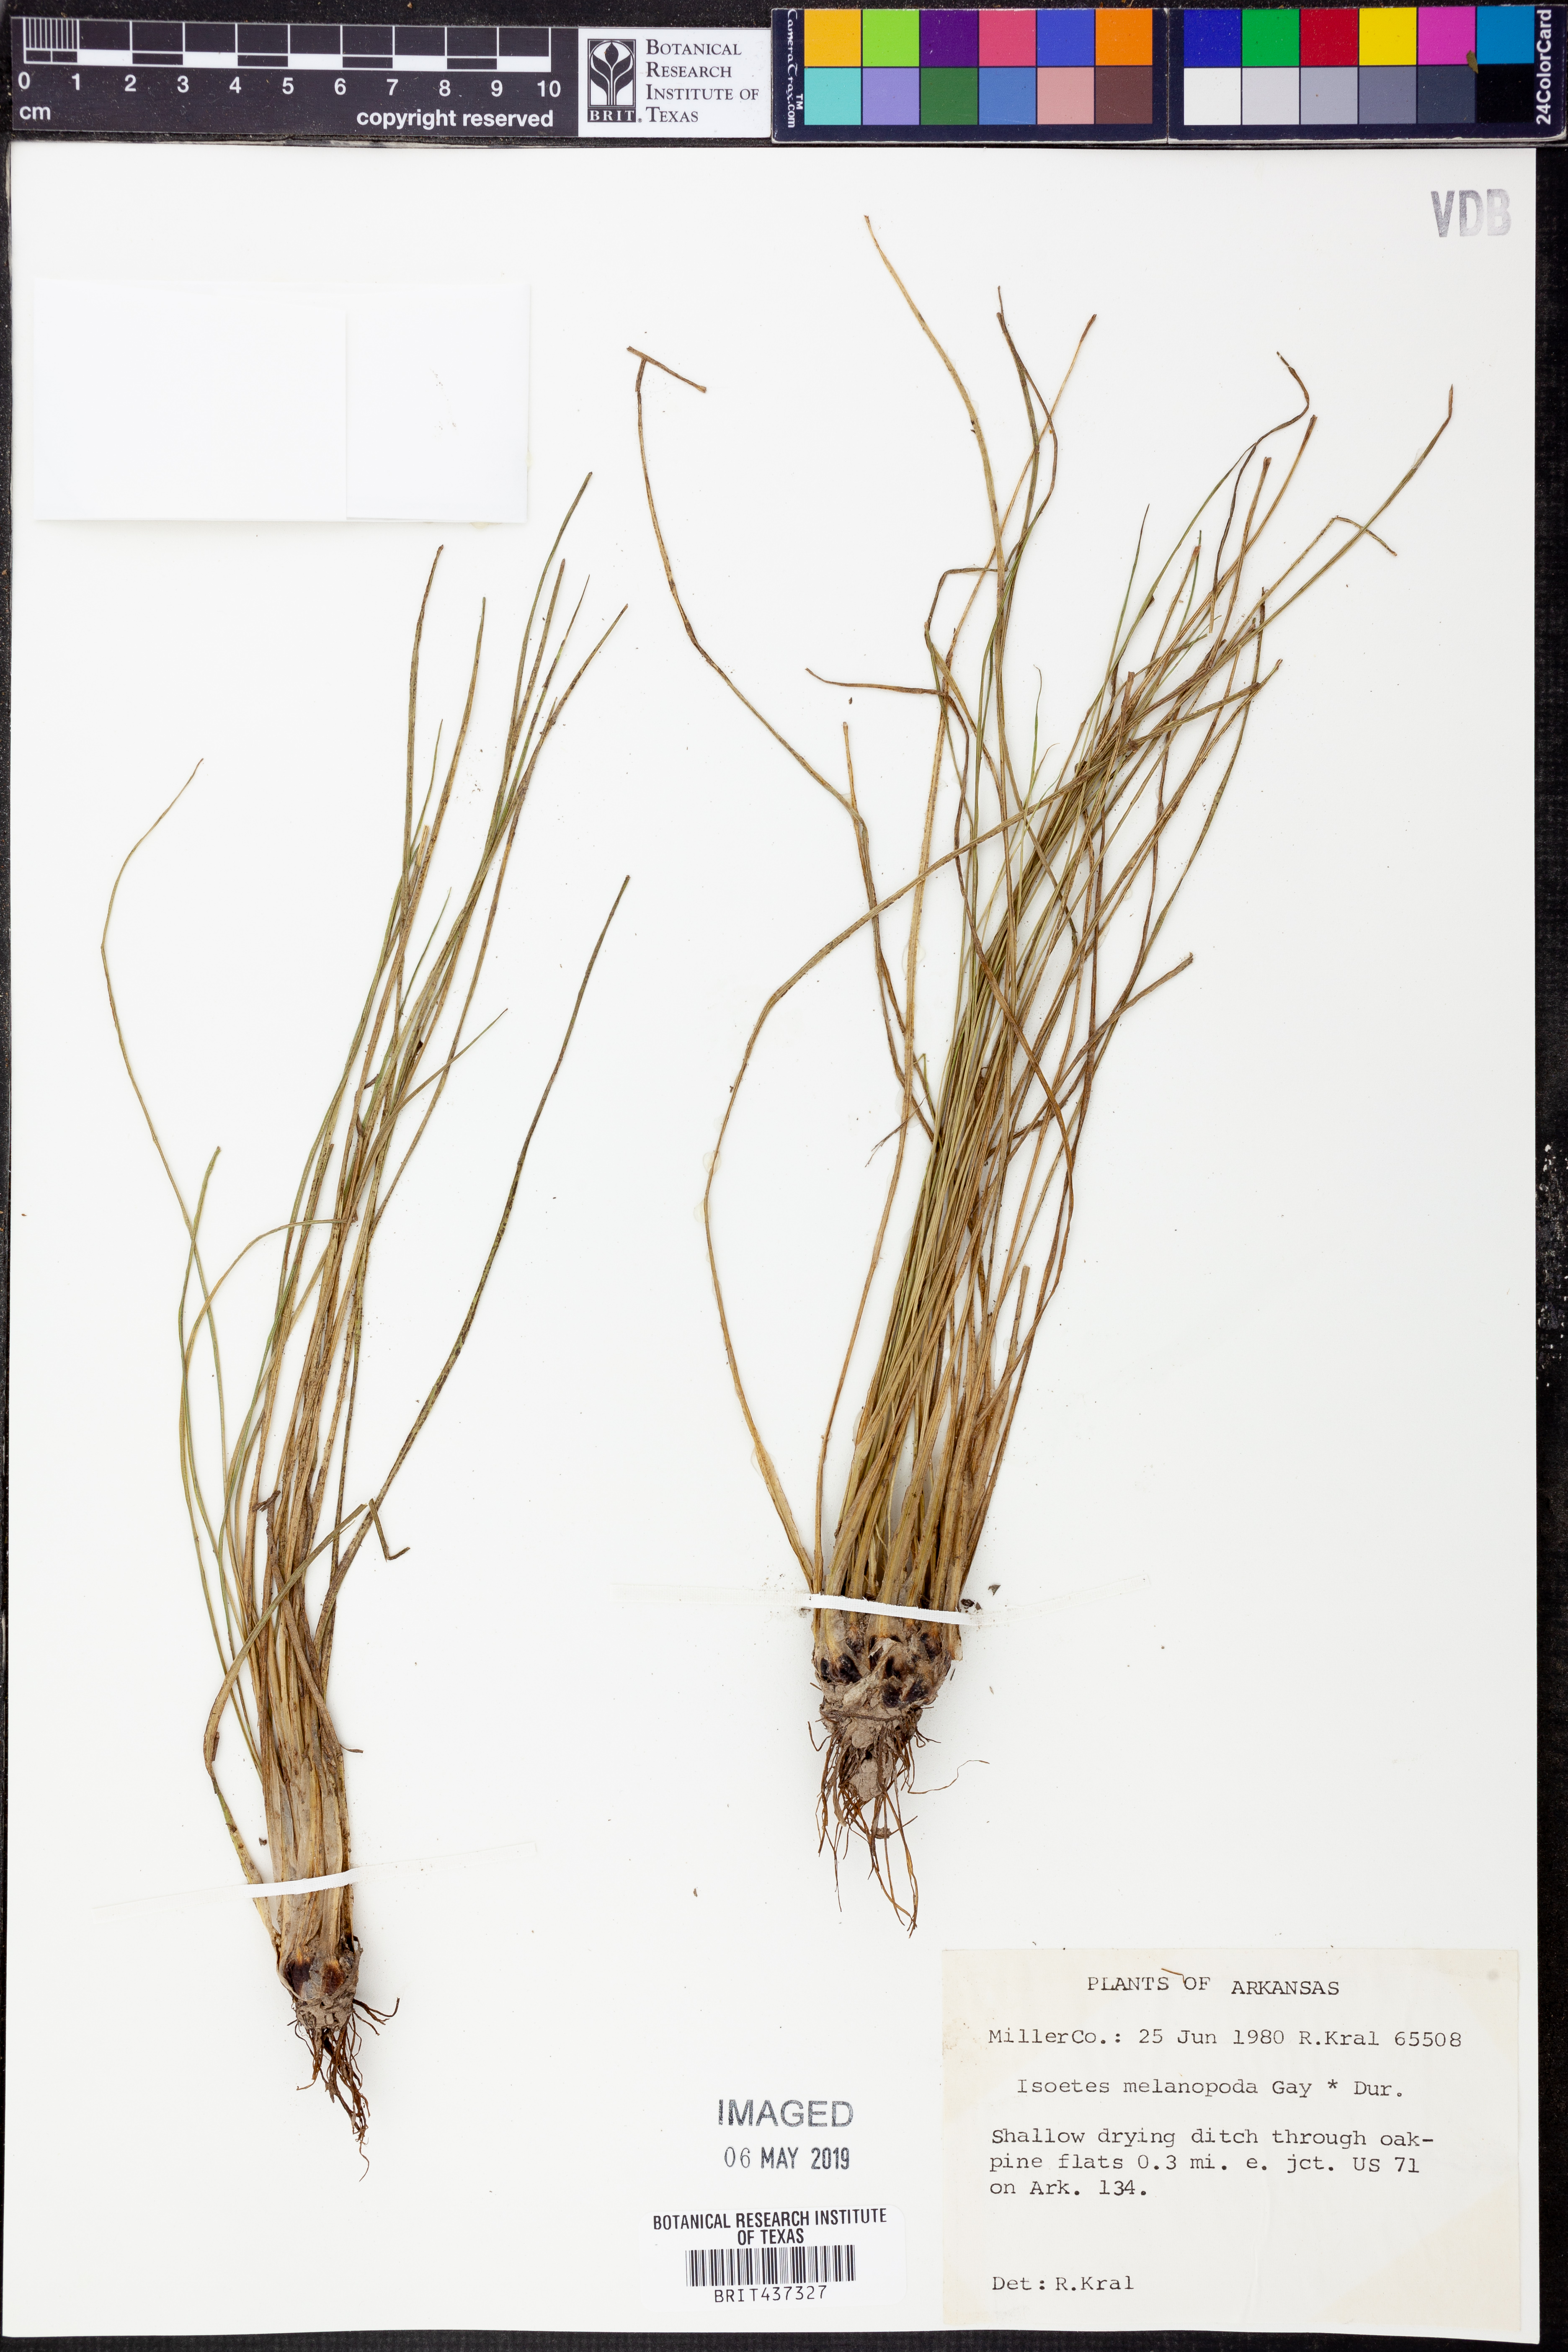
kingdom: Plantae
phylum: Tracheophyta
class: Lycopodiopsida
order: Isoetales
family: Isoetaceae
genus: Isoetes
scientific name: Isoetes melanopoda
